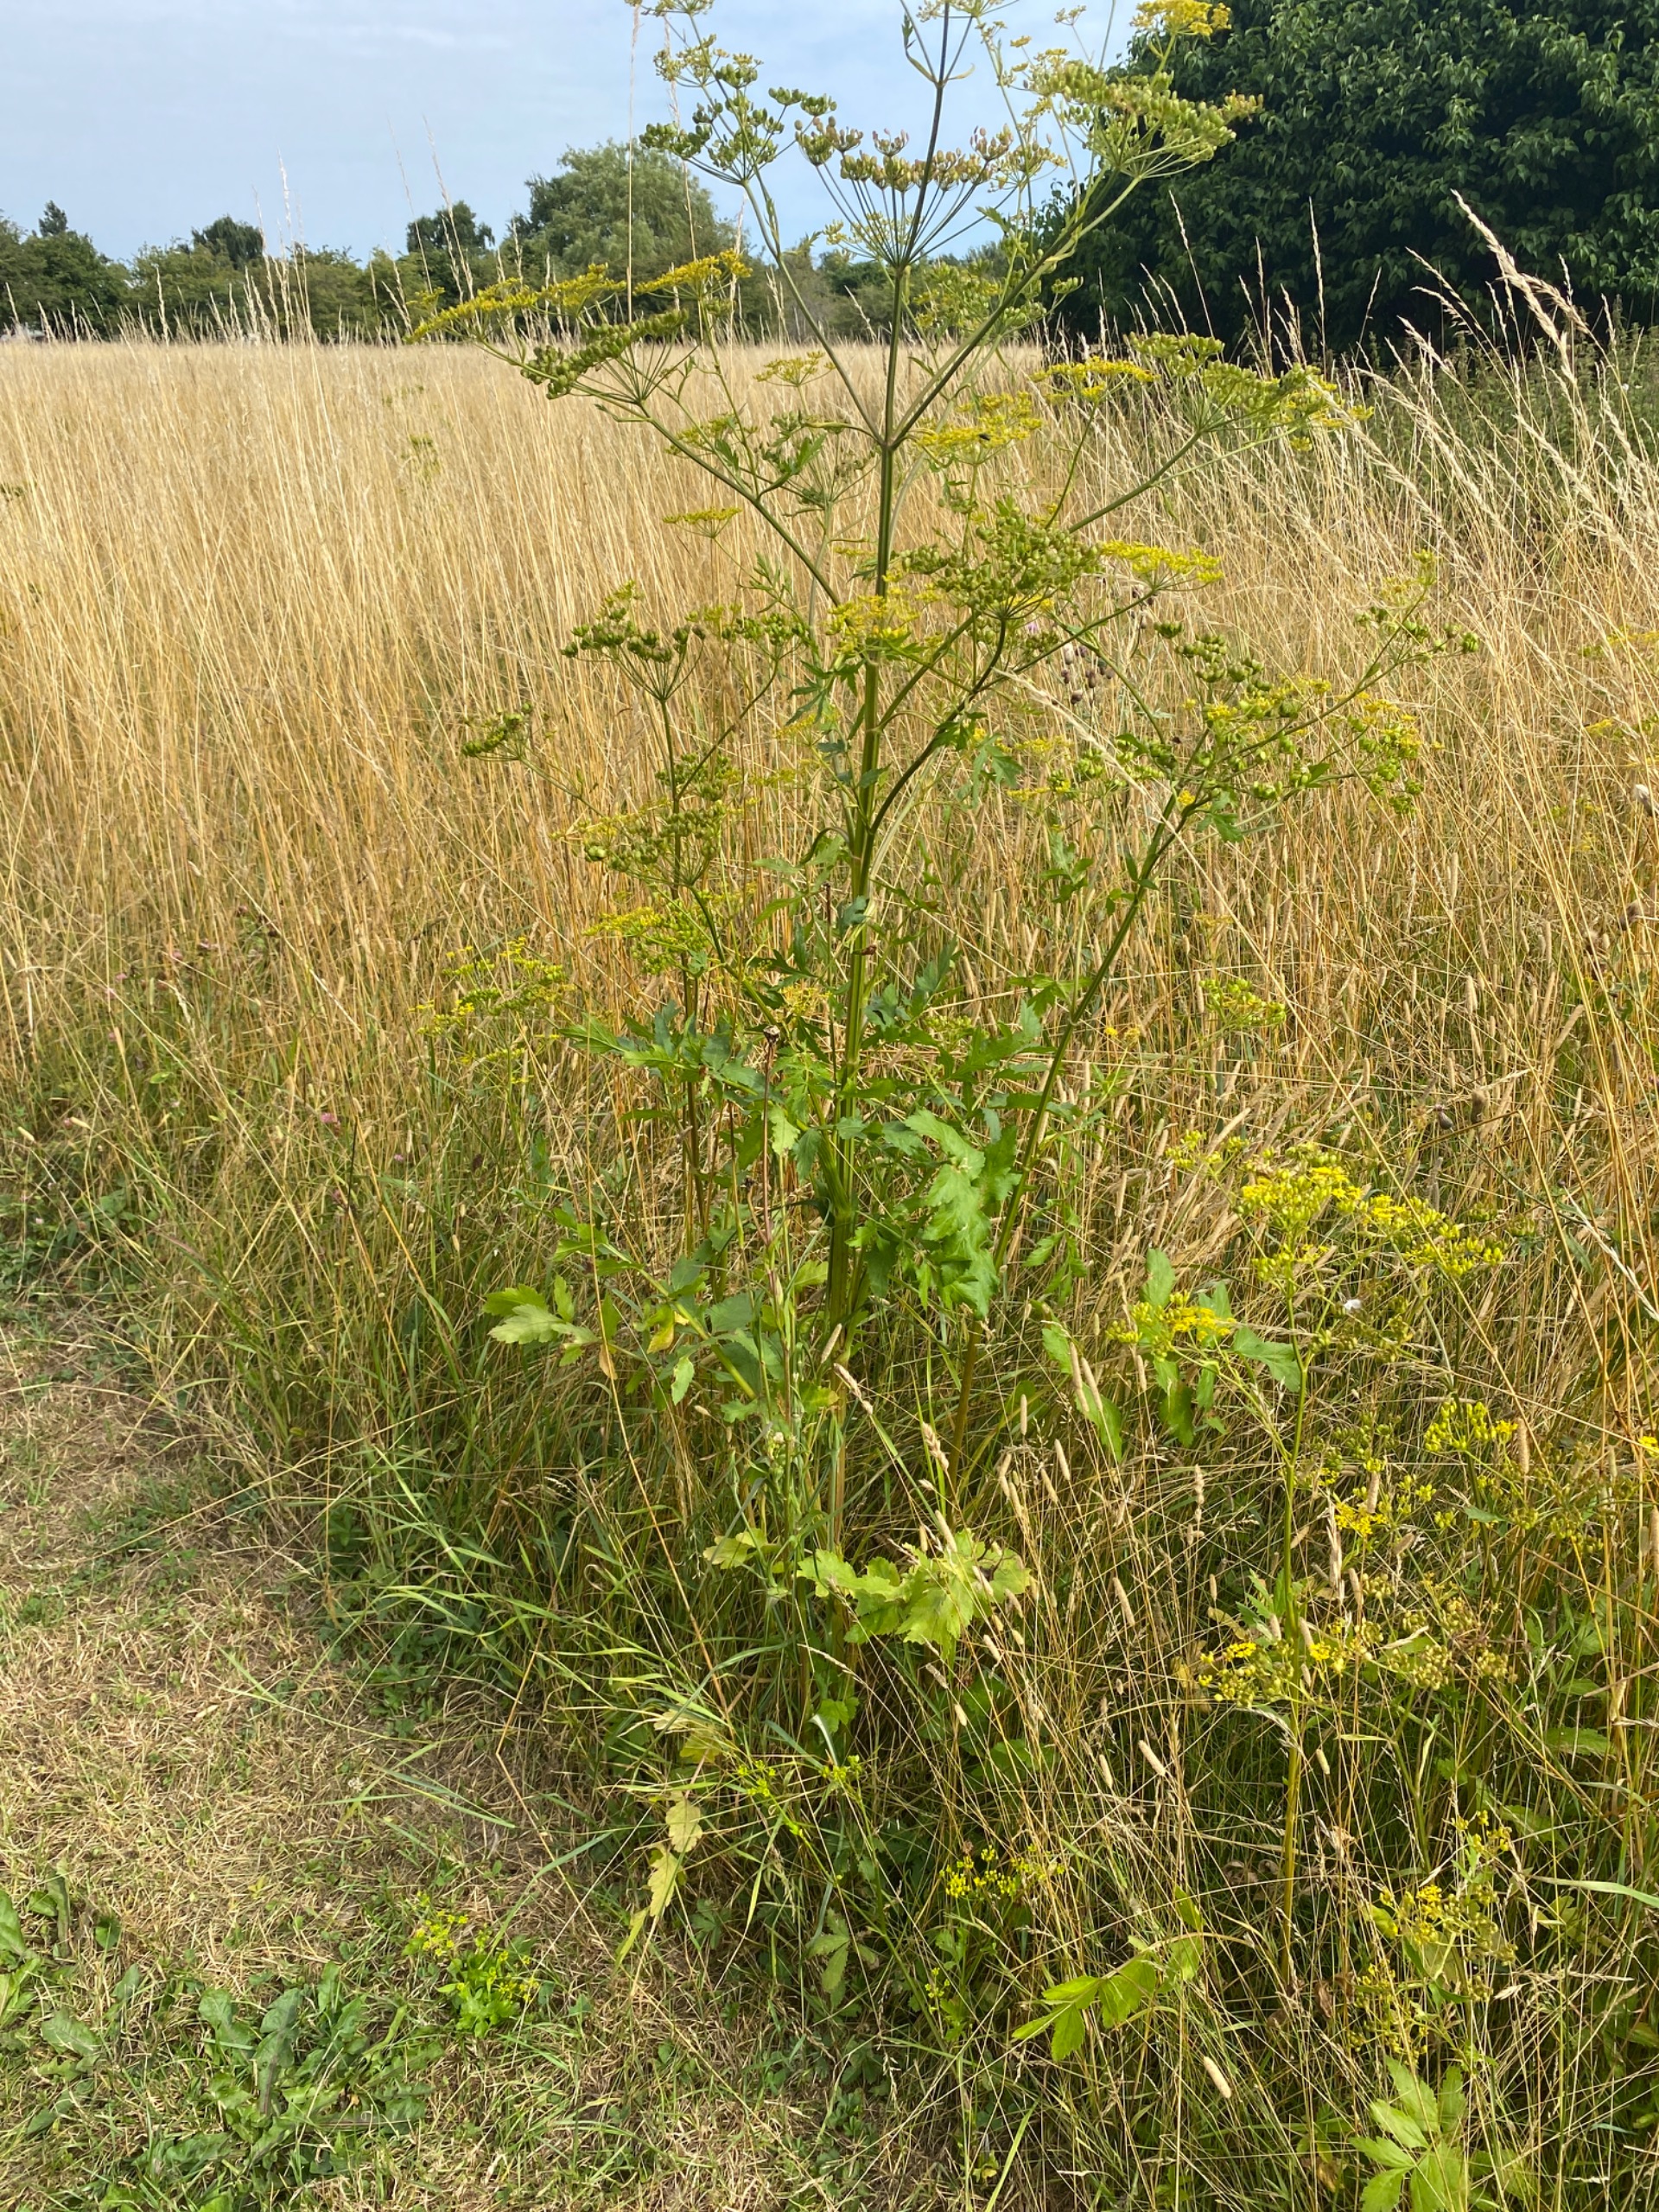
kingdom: Plantae
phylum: Tracheophyta
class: Magnoliopsida
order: Apiales
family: Apiaceae
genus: Pastinaca
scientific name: Pastinaca sativa
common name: Pastinak
